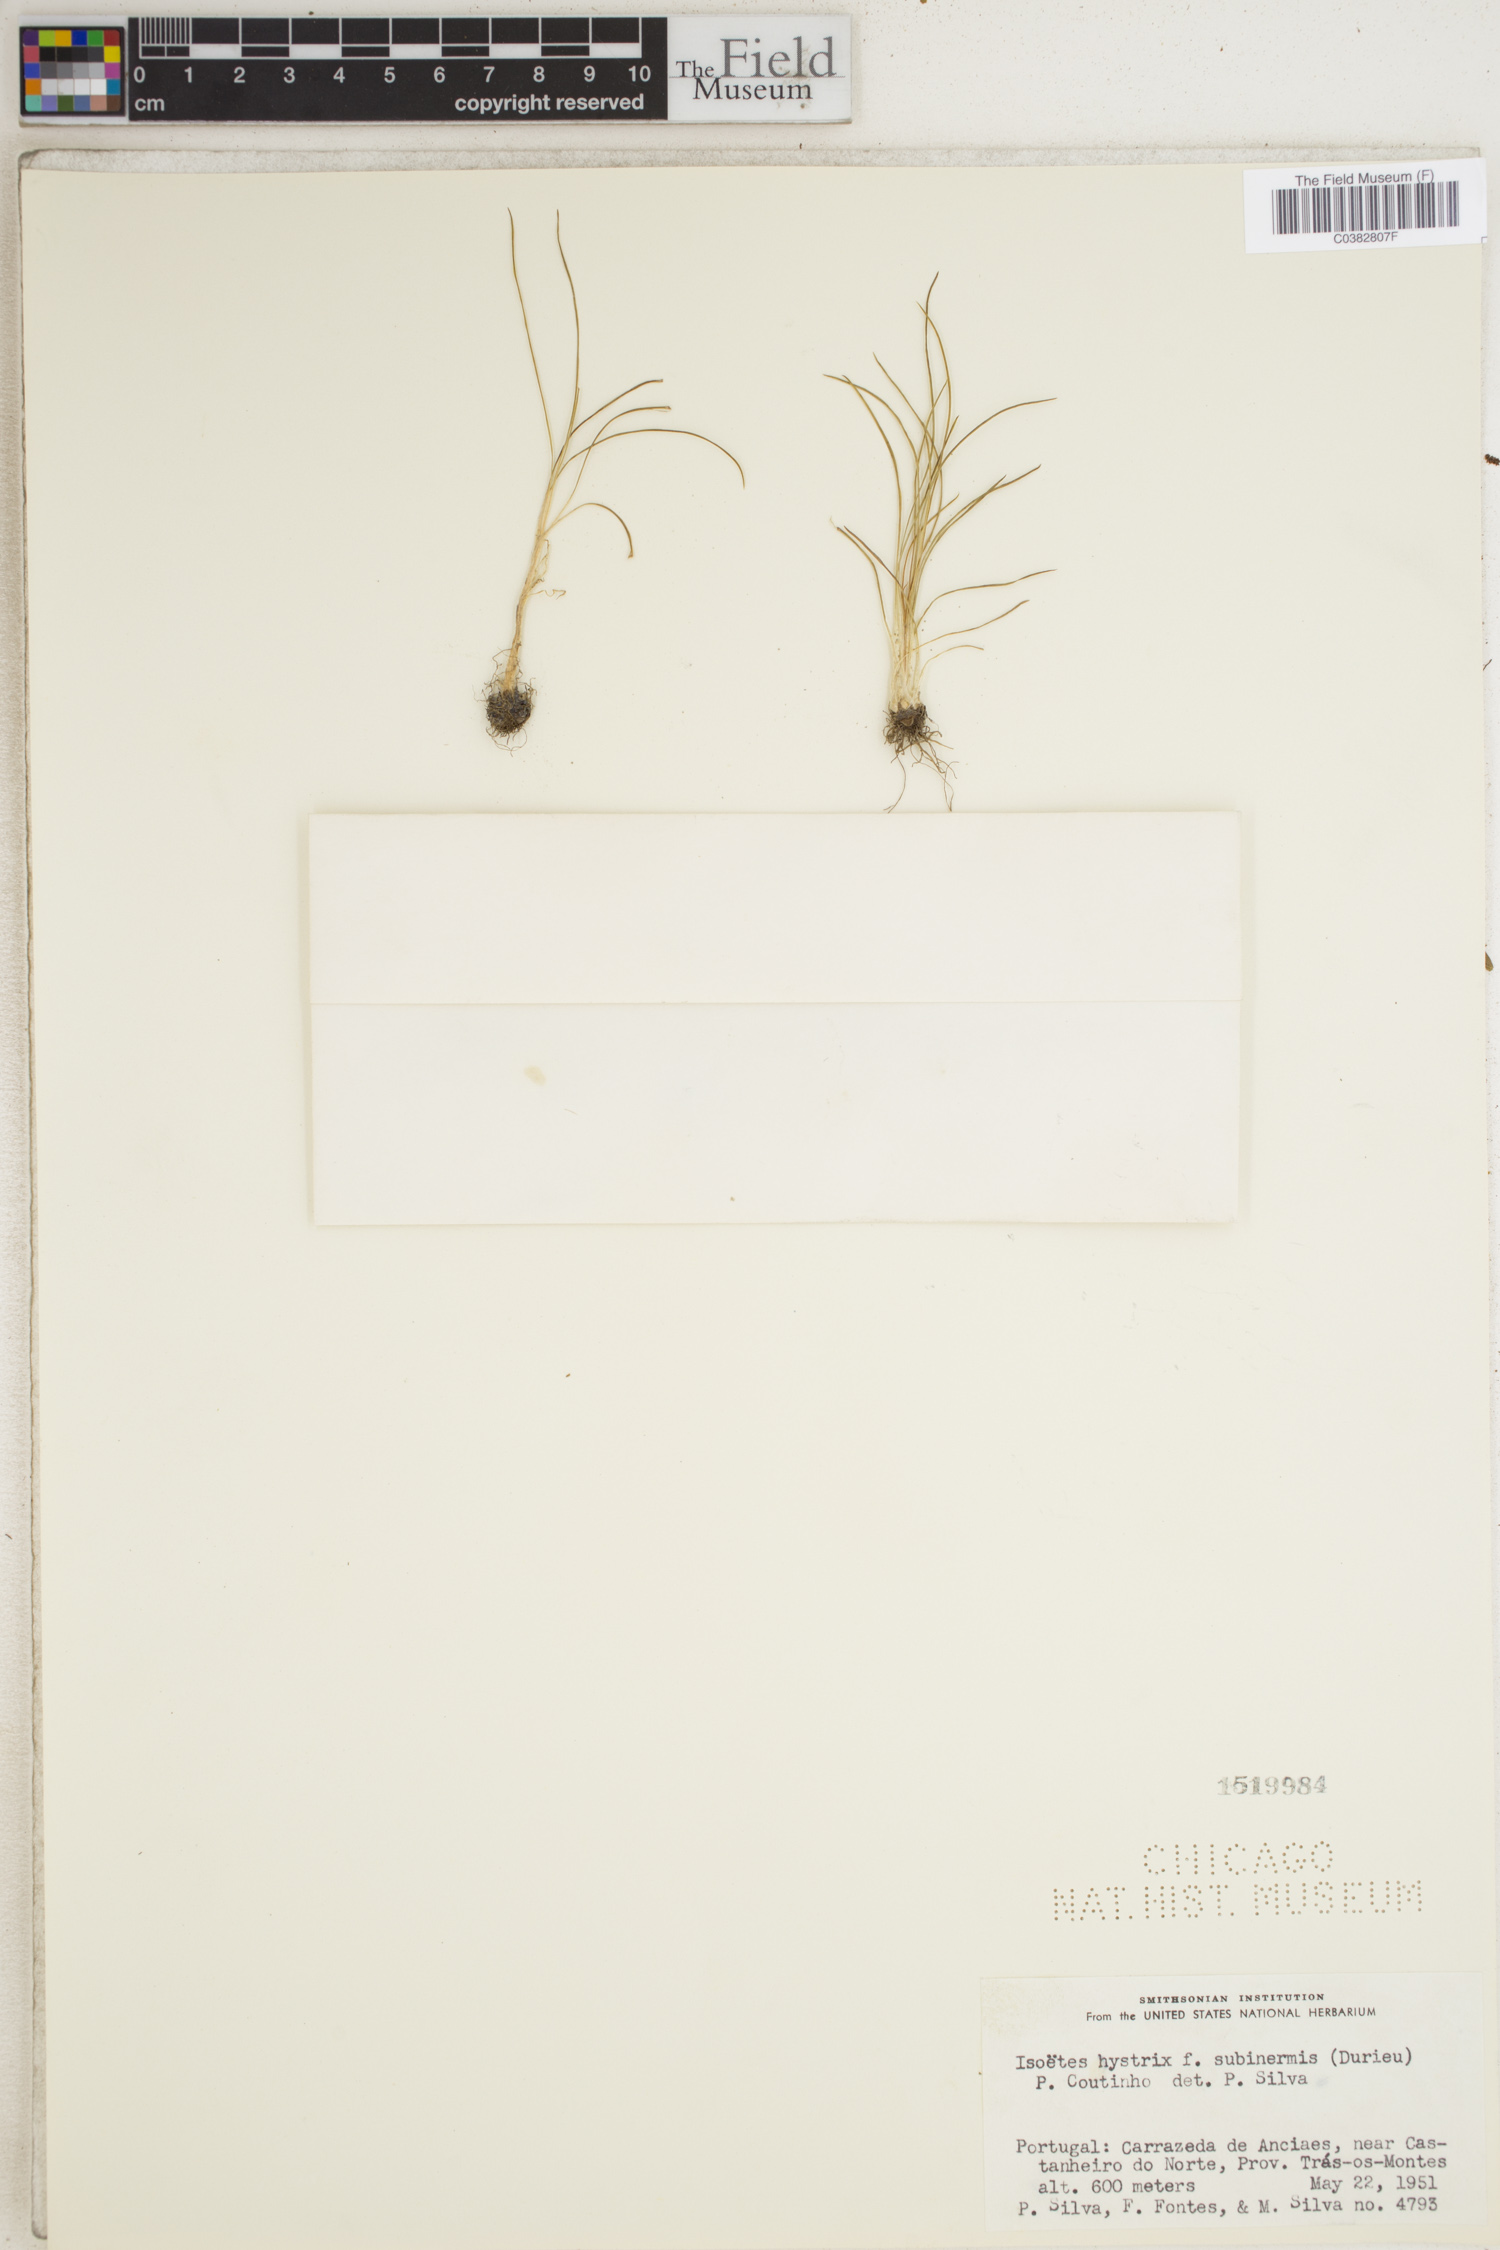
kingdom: Plantae
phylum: Tracheophyta
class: Lycopodiopsida
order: Isoetales
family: Isoetaceae
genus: Isoetes
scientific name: Isoetes histrix
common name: Land quillwort
